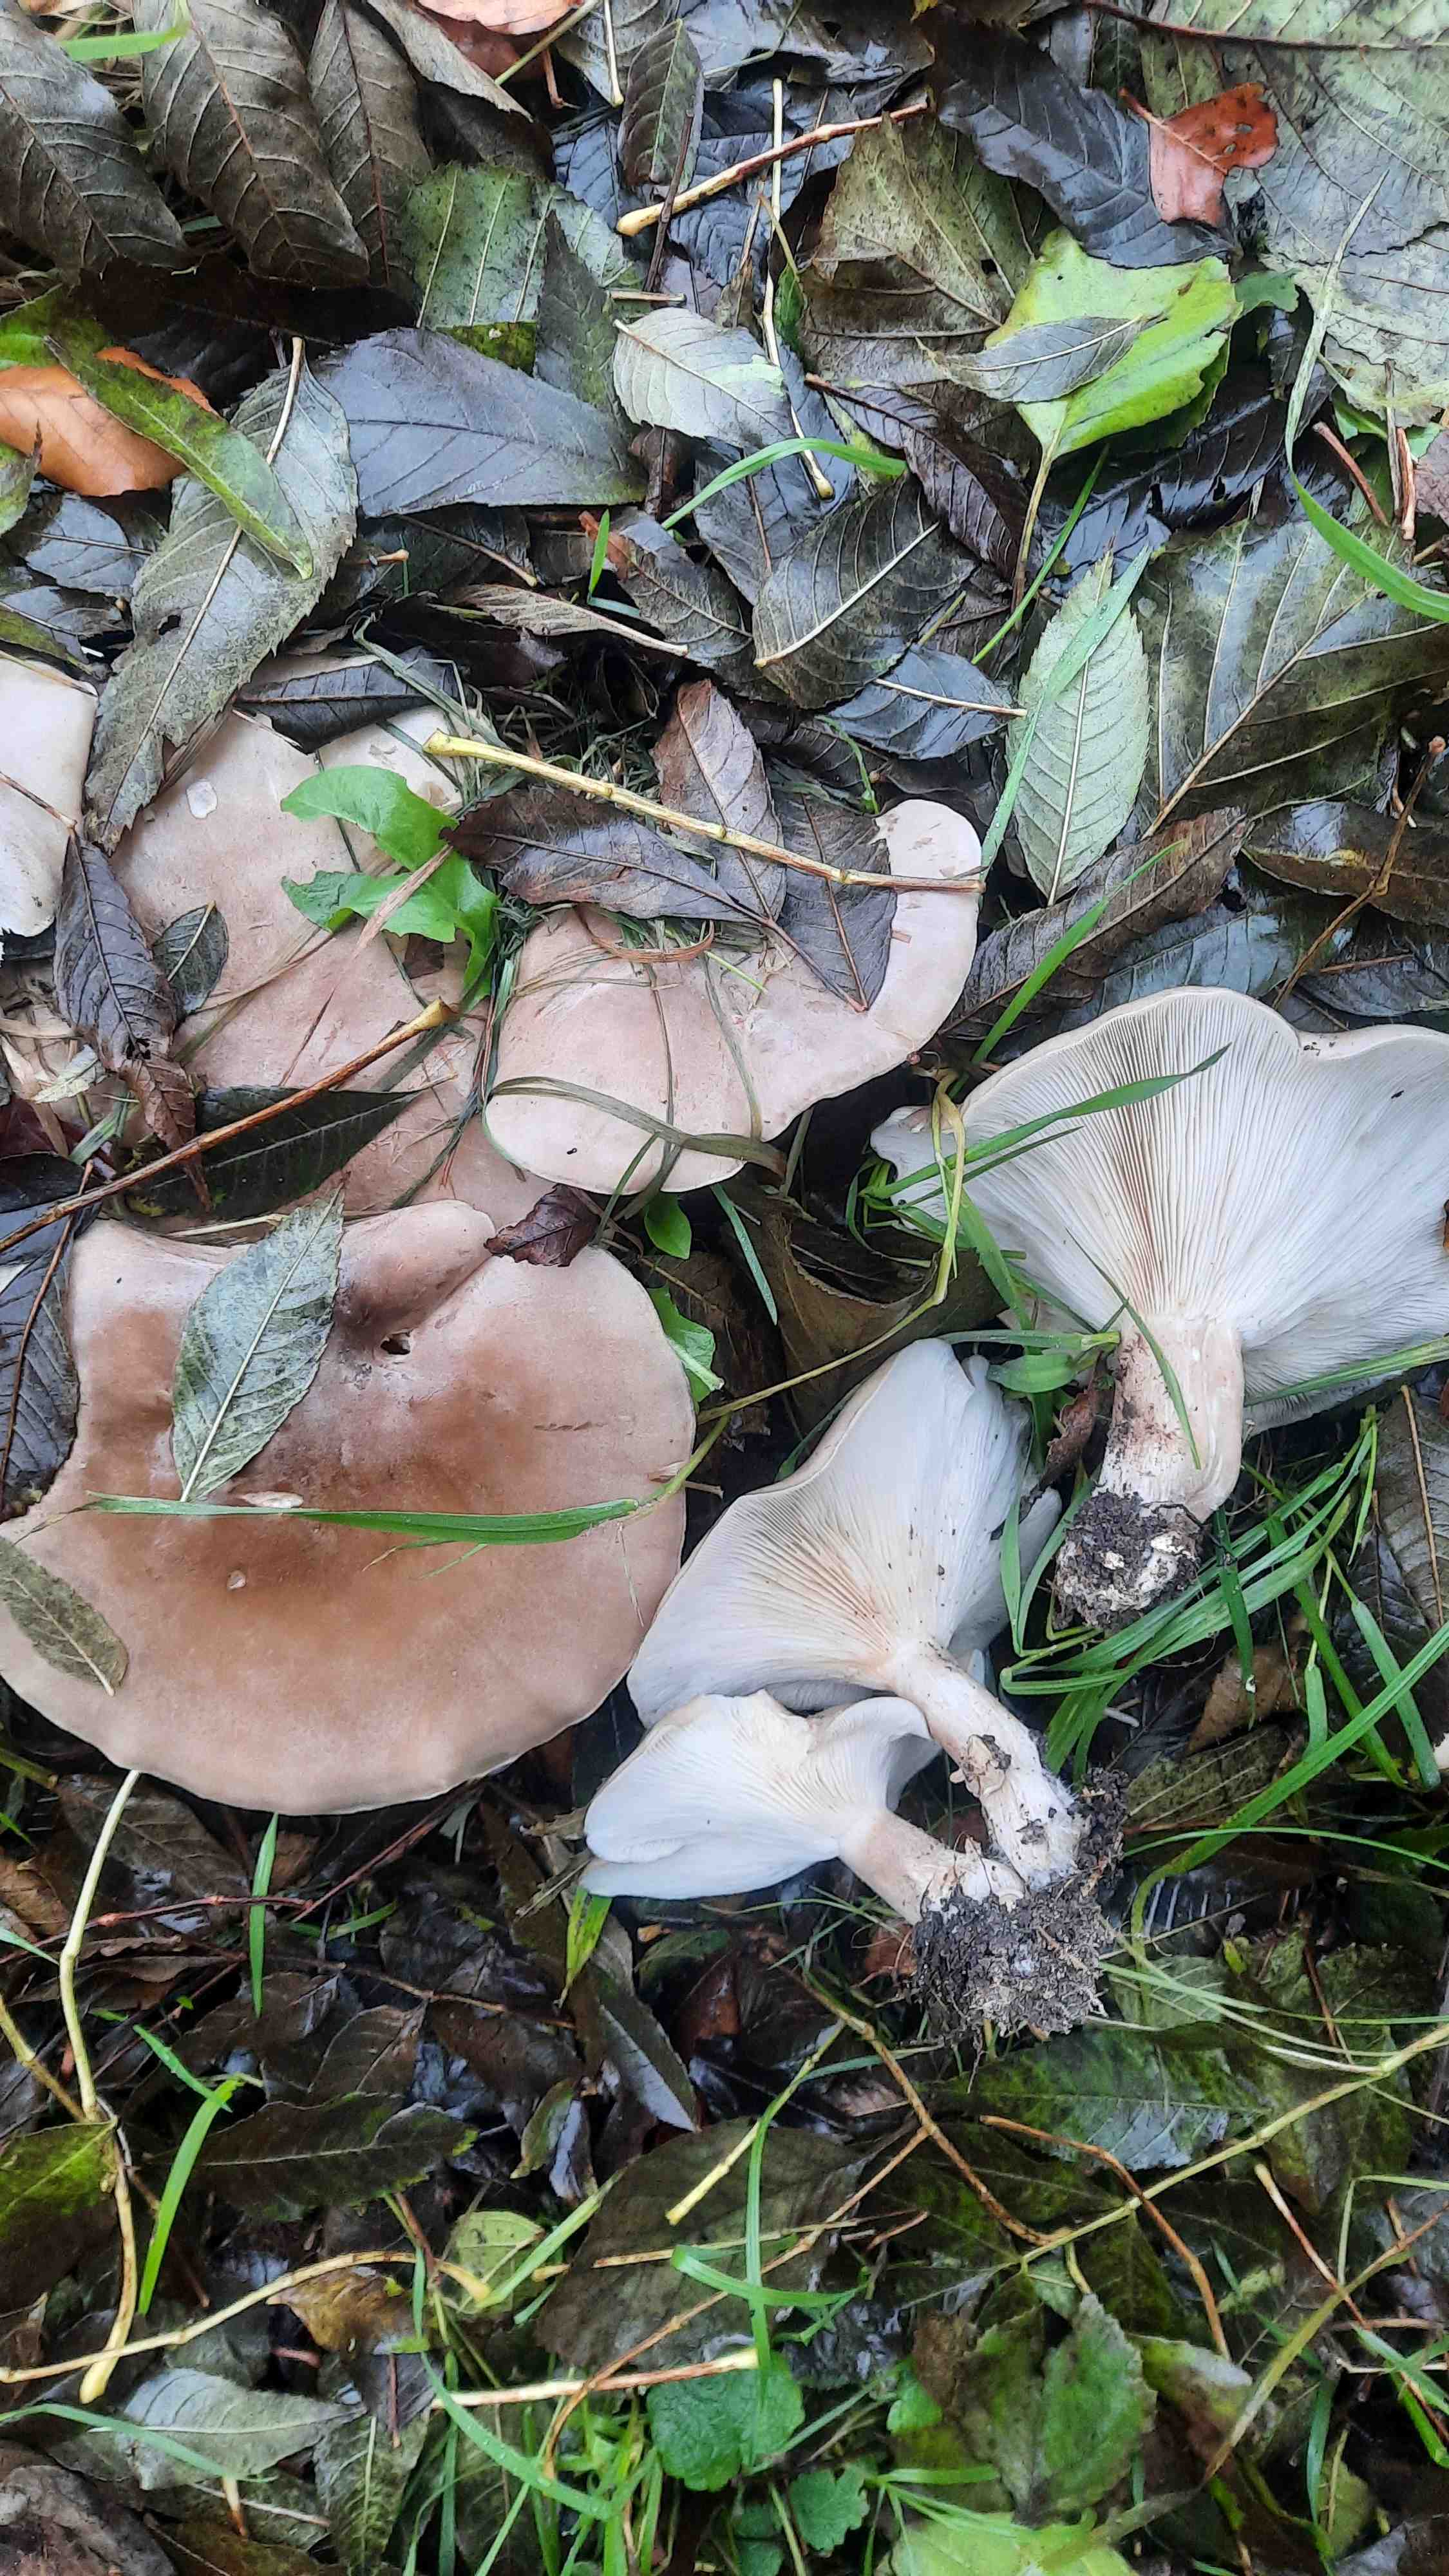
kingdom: Fungi
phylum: Basidiomycota
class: Agaricomycetes
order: Agaricales
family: Tricholomataceae
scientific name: Tricholomataceae
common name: ridderhatfamilien
